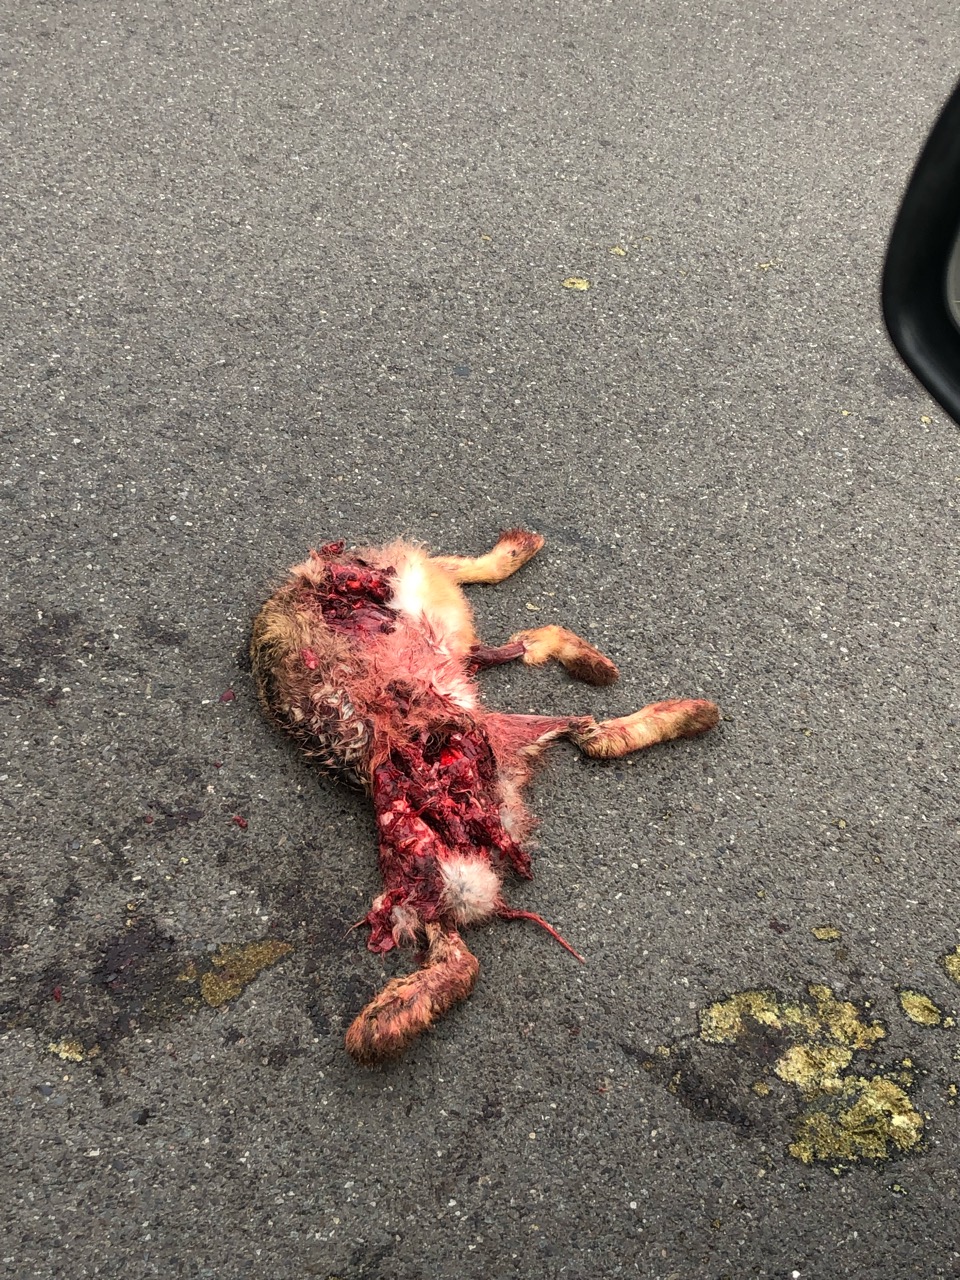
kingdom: Animalia
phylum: Chordata
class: Mammalia
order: Lagomorpha
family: Leporidae
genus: Lepus
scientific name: Lepus europaeus
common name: European hare
